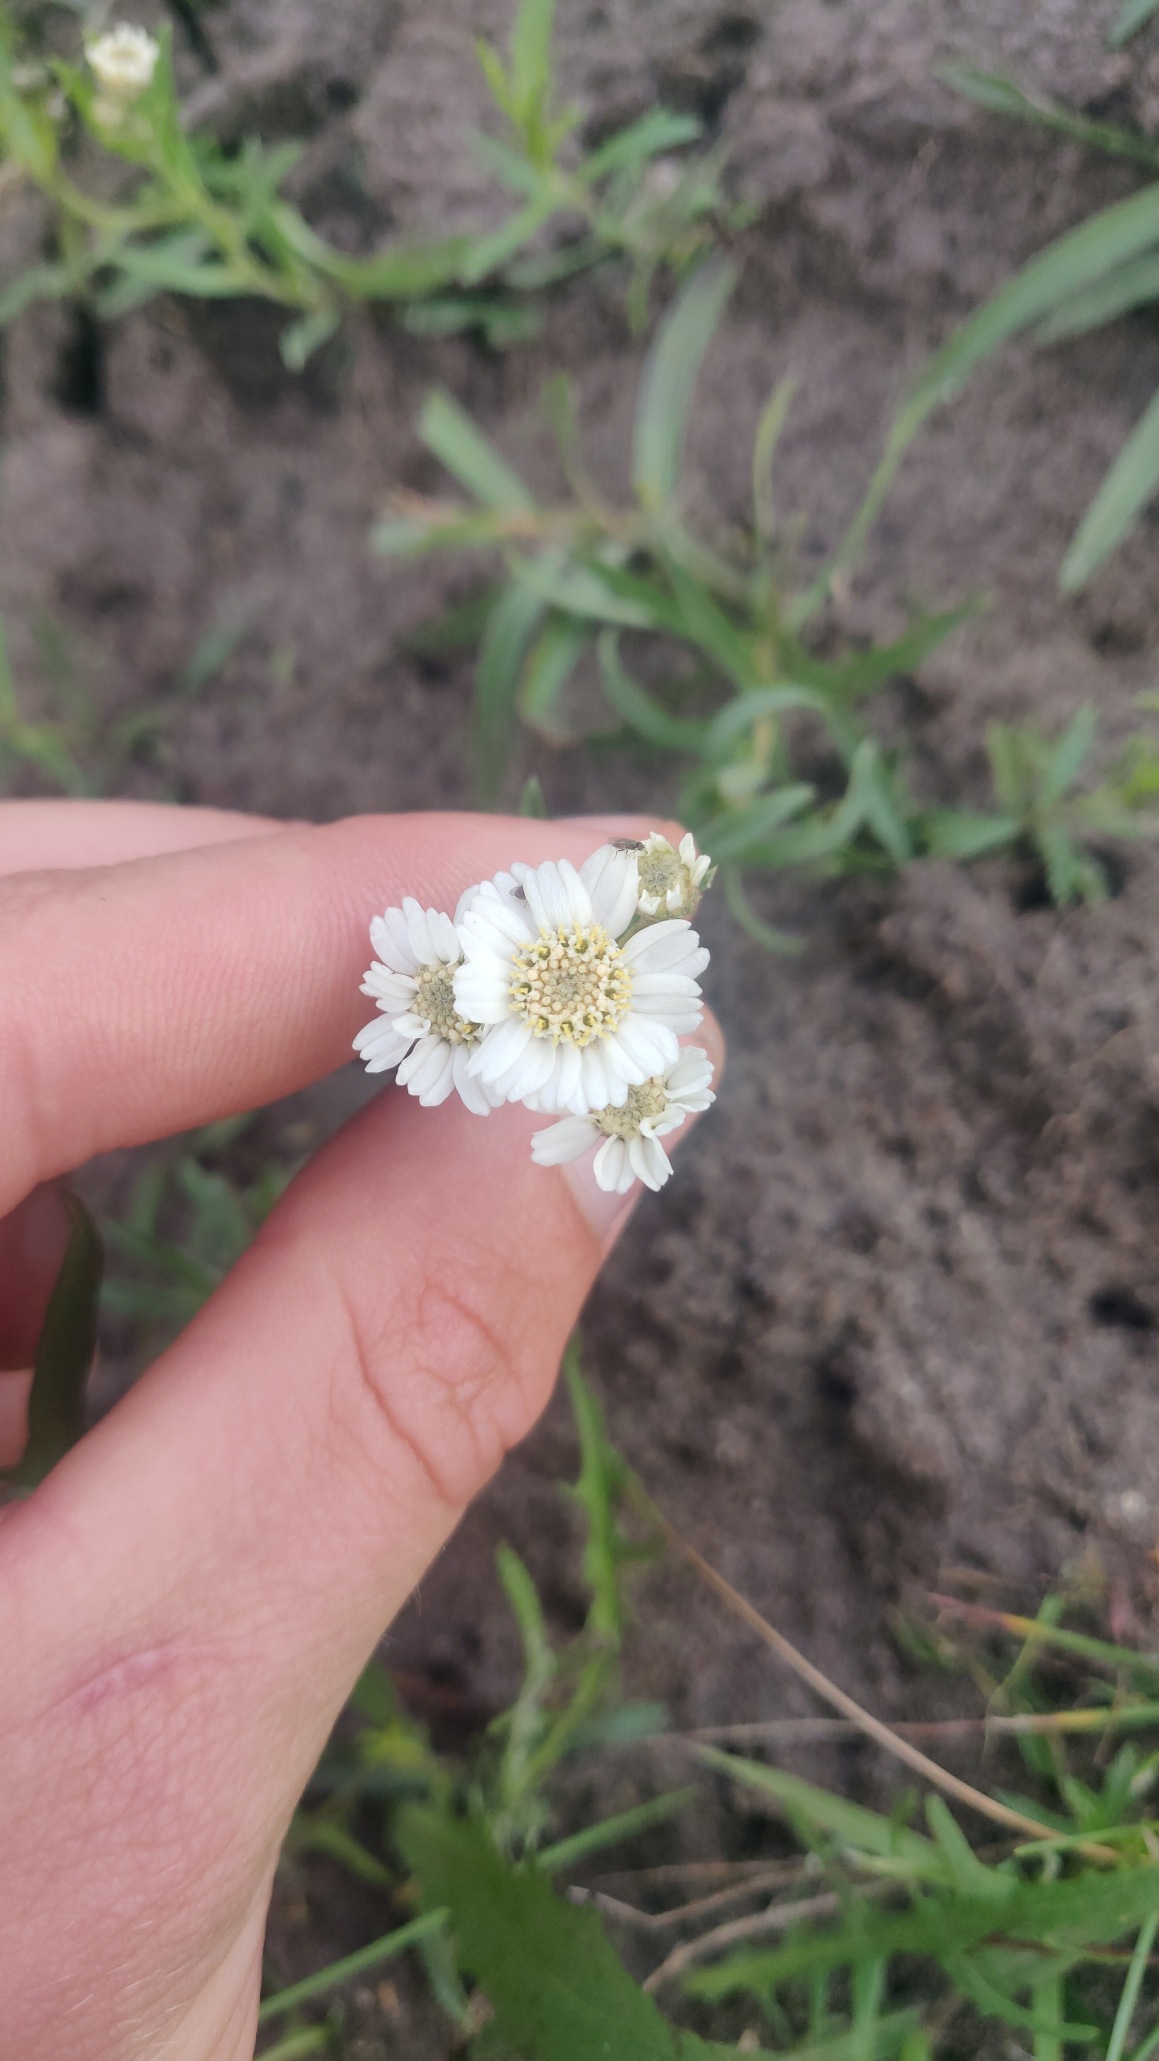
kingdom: Plantae
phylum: Tracheophyta
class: Magnoliopsida
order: Asterales
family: Asteraceae
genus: Achillea
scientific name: Achillea ptarmica
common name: Nyse-røllike
